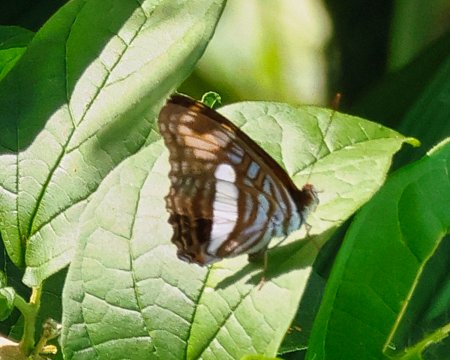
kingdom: Animalia
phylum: Arthropoda
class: Insecta
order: Lepidoptera
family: Nymphalidae
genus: Limenitis
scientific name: Limenitis Adelpha erotia
